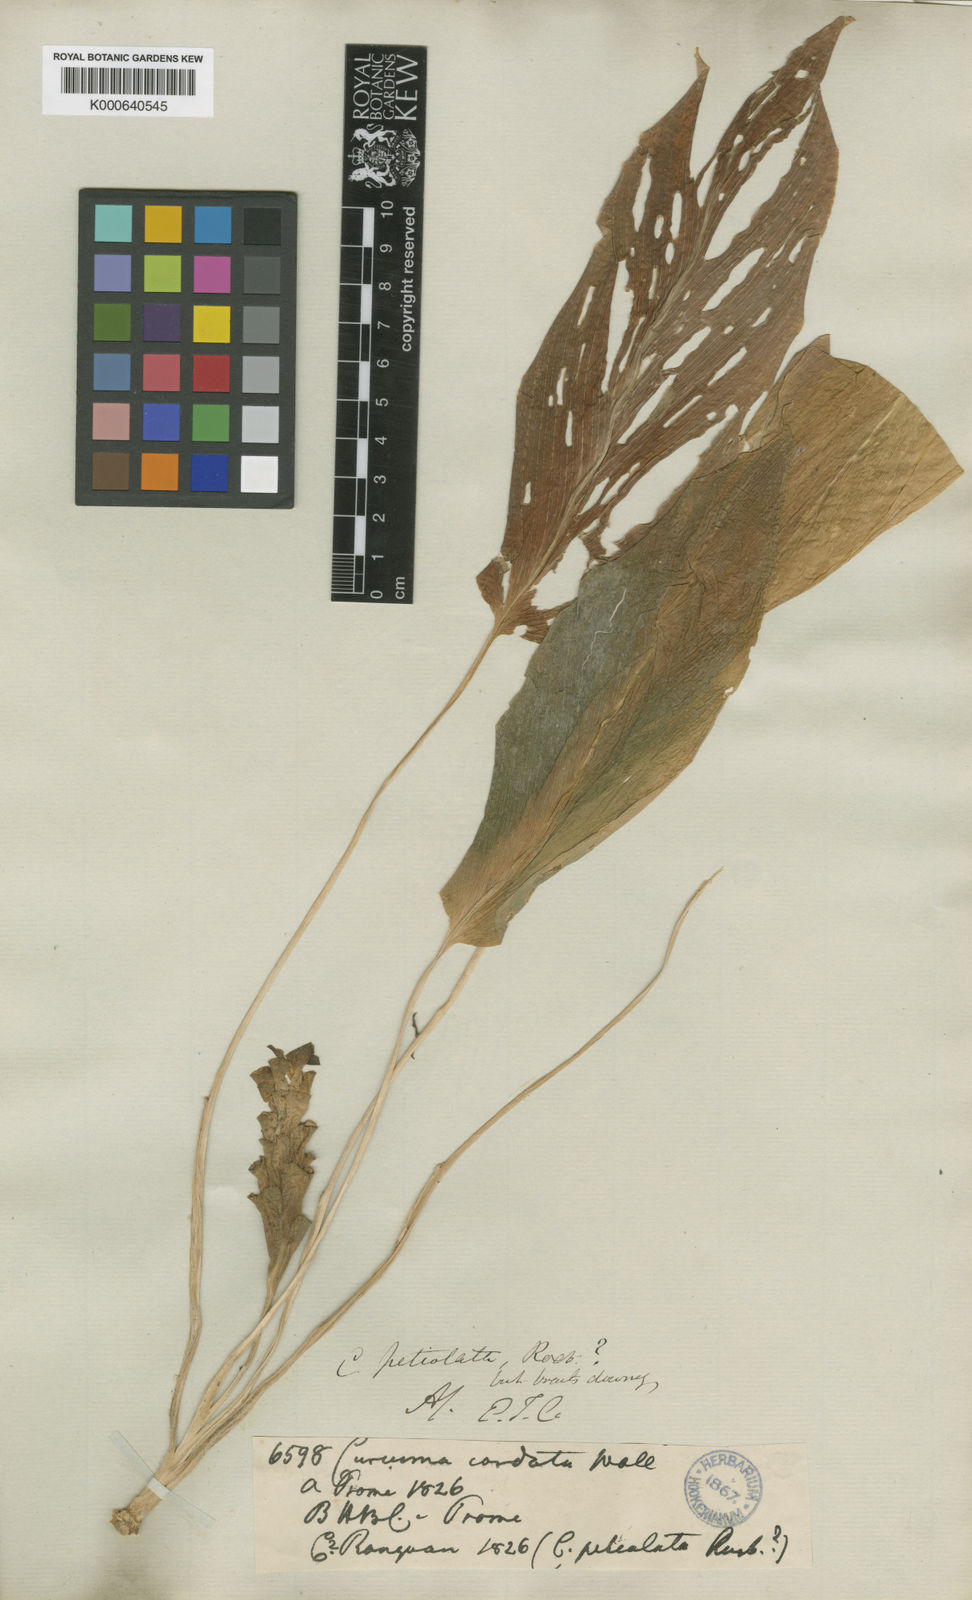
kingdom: Plantae
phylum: Tracheophyta
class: Liliopsida
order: Zingiberales
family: Zingiberaceae
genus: Curcuma
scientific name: Curcuma petiolata
